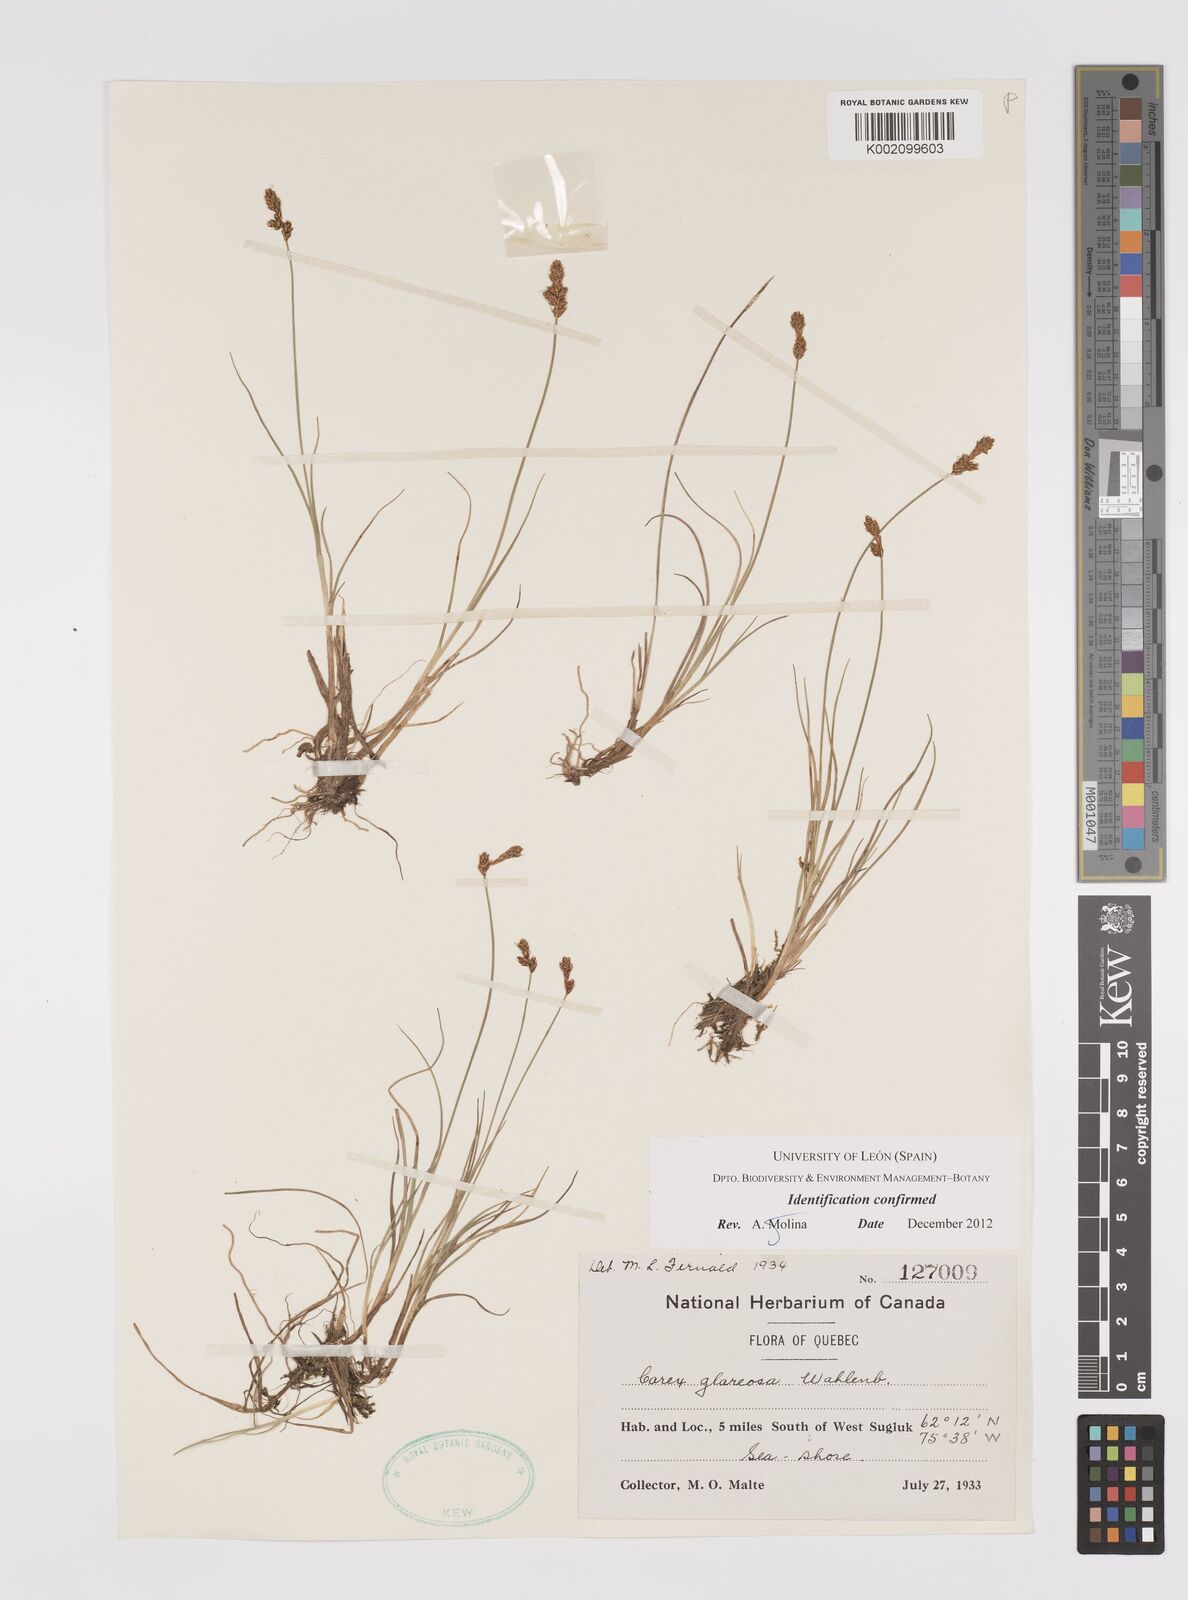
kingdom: Plantae
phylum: Tracheophyta
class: Liliopsida
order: Poales
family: Cyperaceae
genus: Carex
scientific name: Carex glareosa
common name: Clustered sedge
